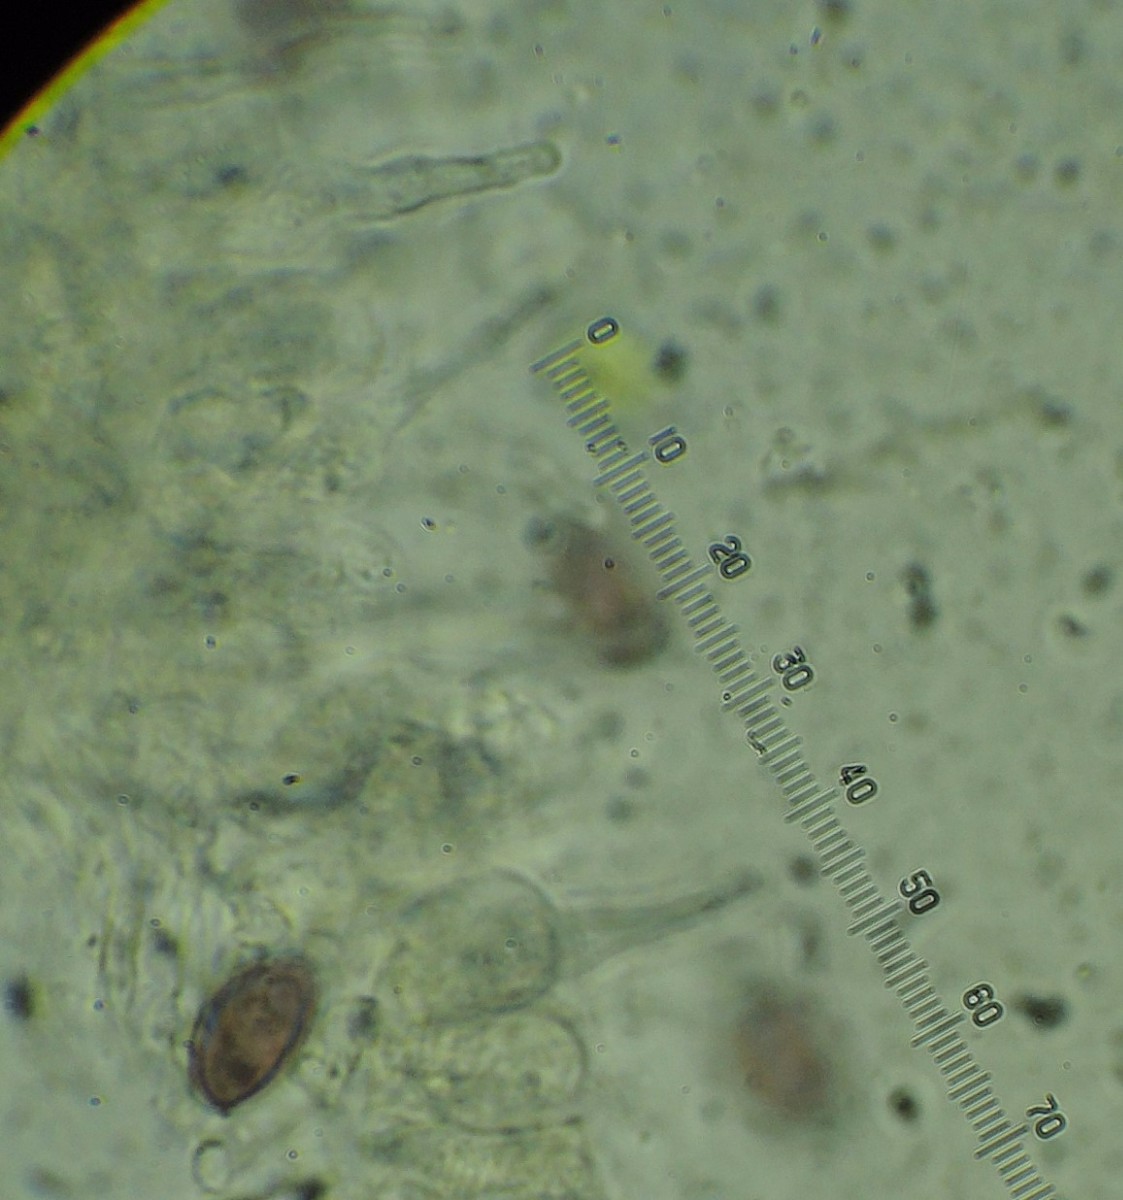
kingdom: Fungi
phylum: Basidiomycota
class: Agaricomycetes
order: Agaricales
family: Hymenogastraceae
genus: Psilocybe
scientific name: Psilocybe fuscofulva
